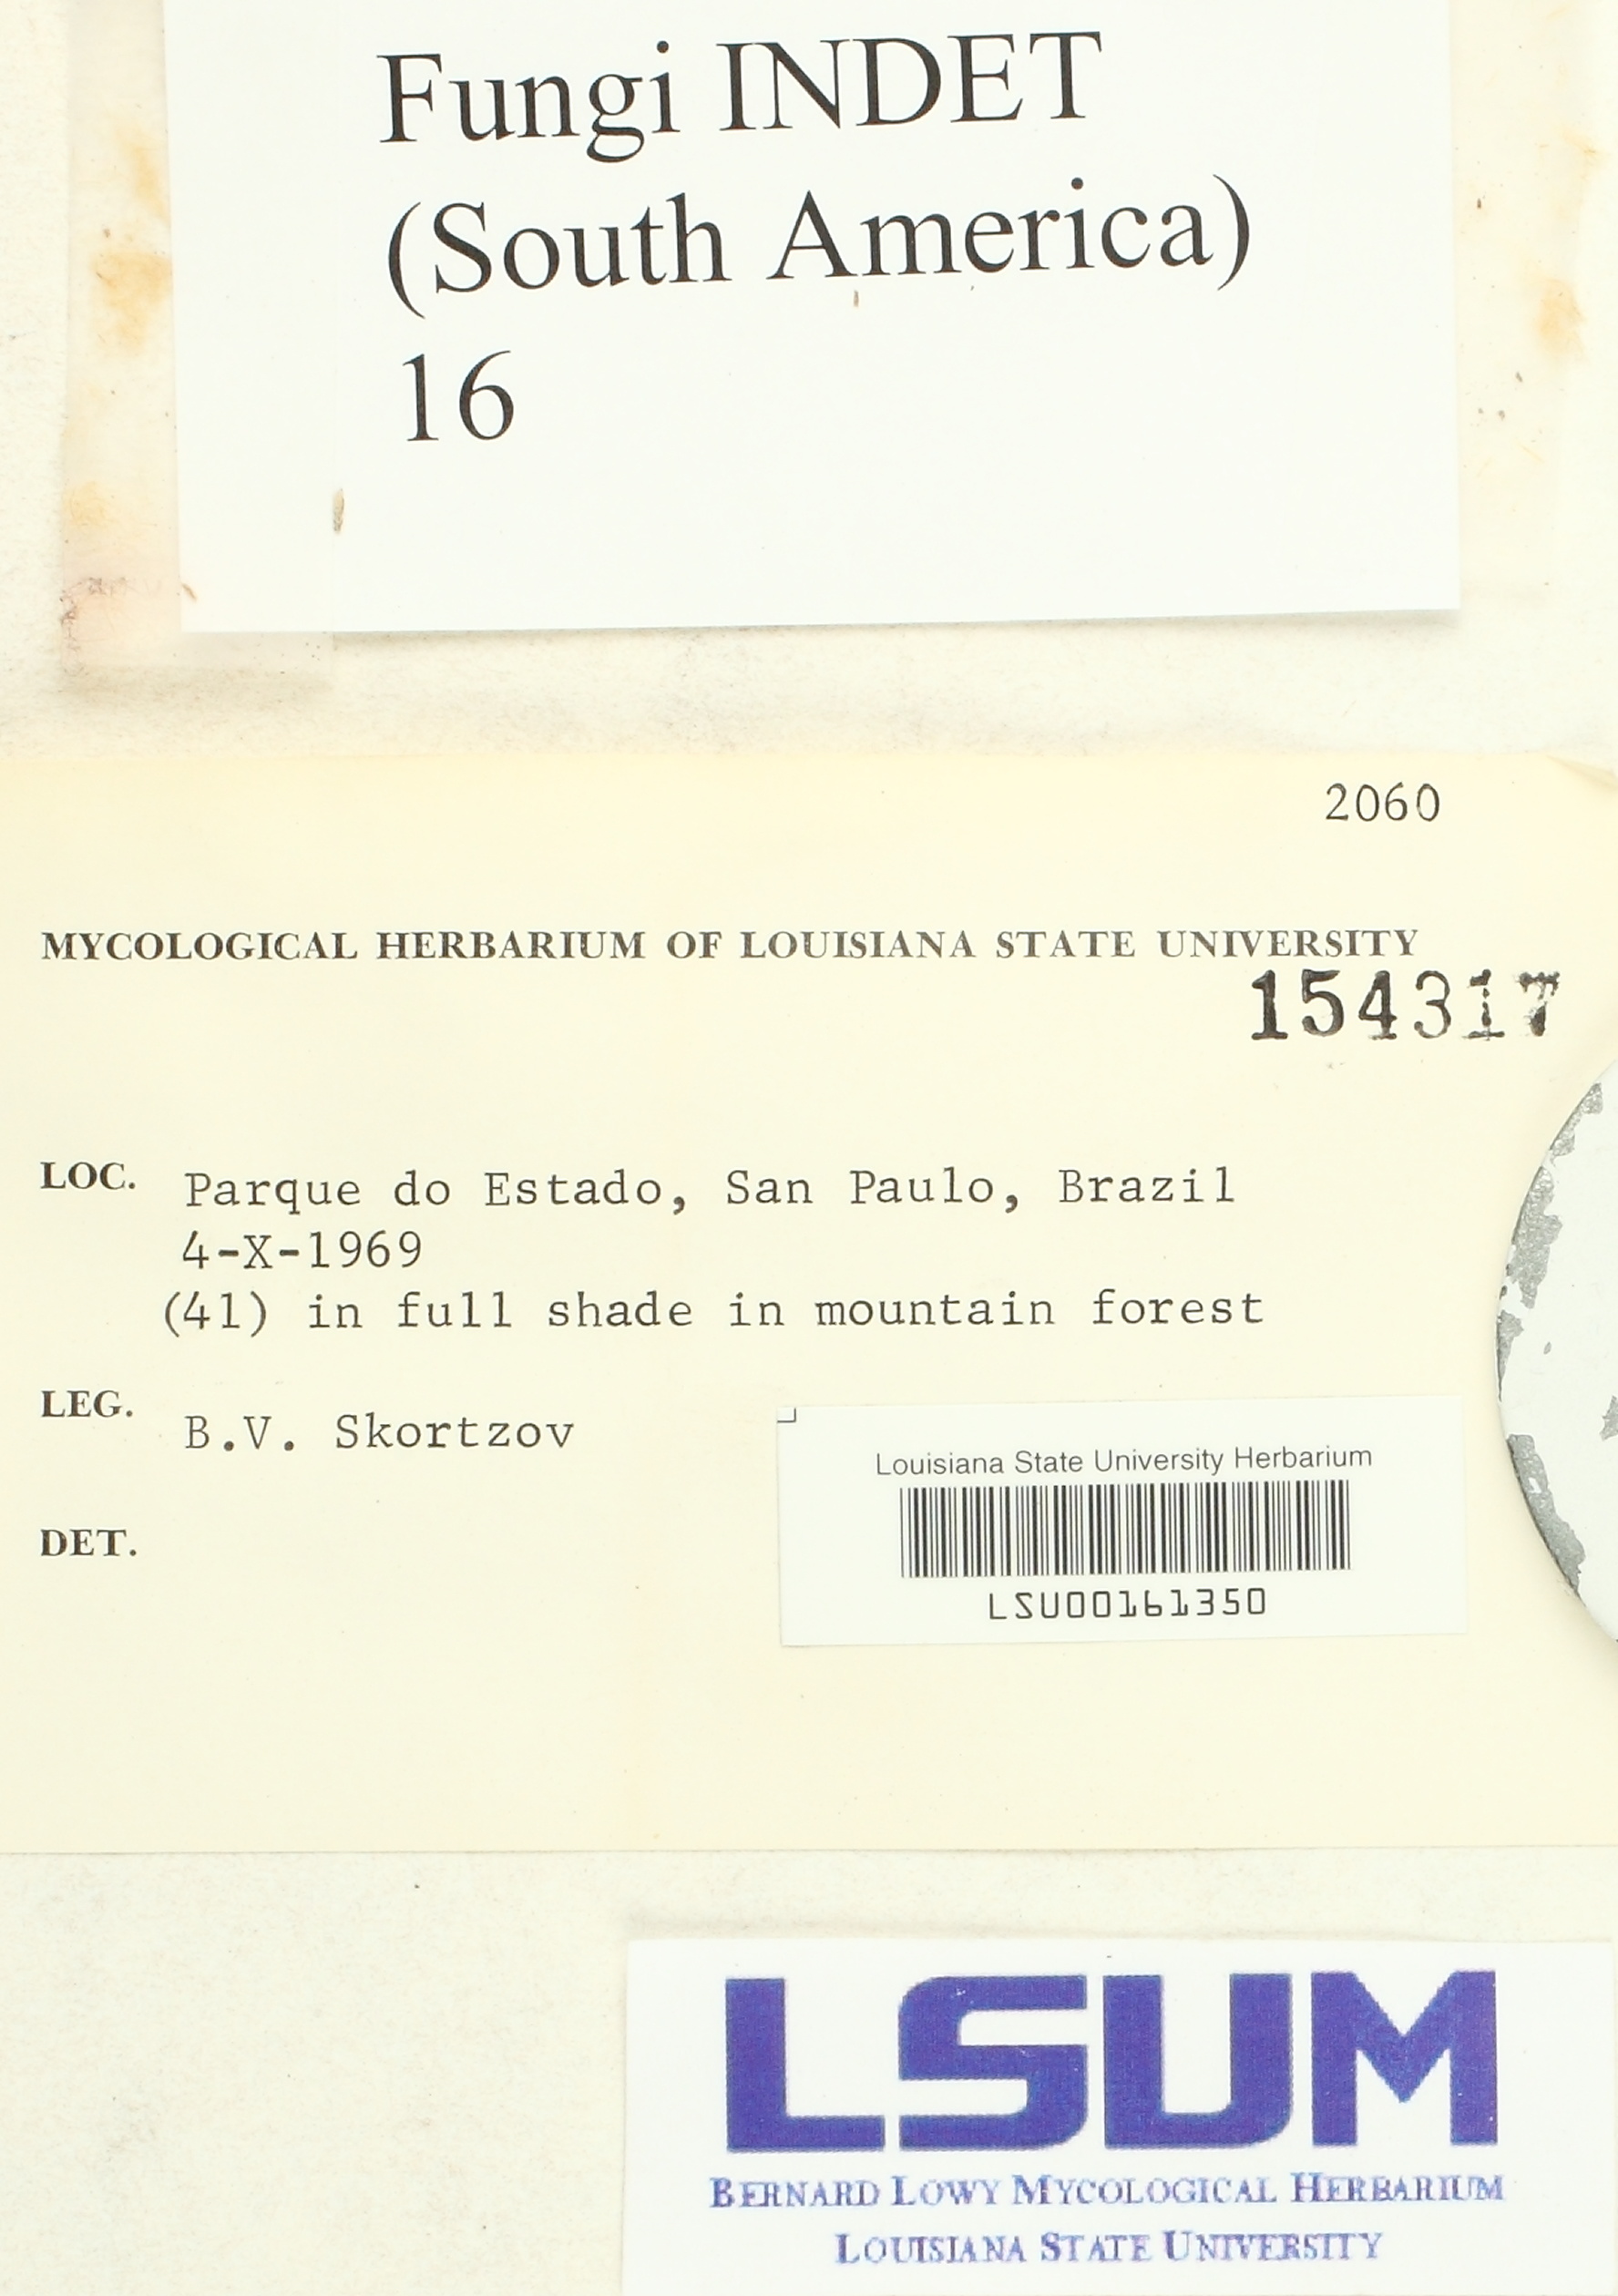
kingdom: Fungi
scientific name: Fungi
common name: Fungi
